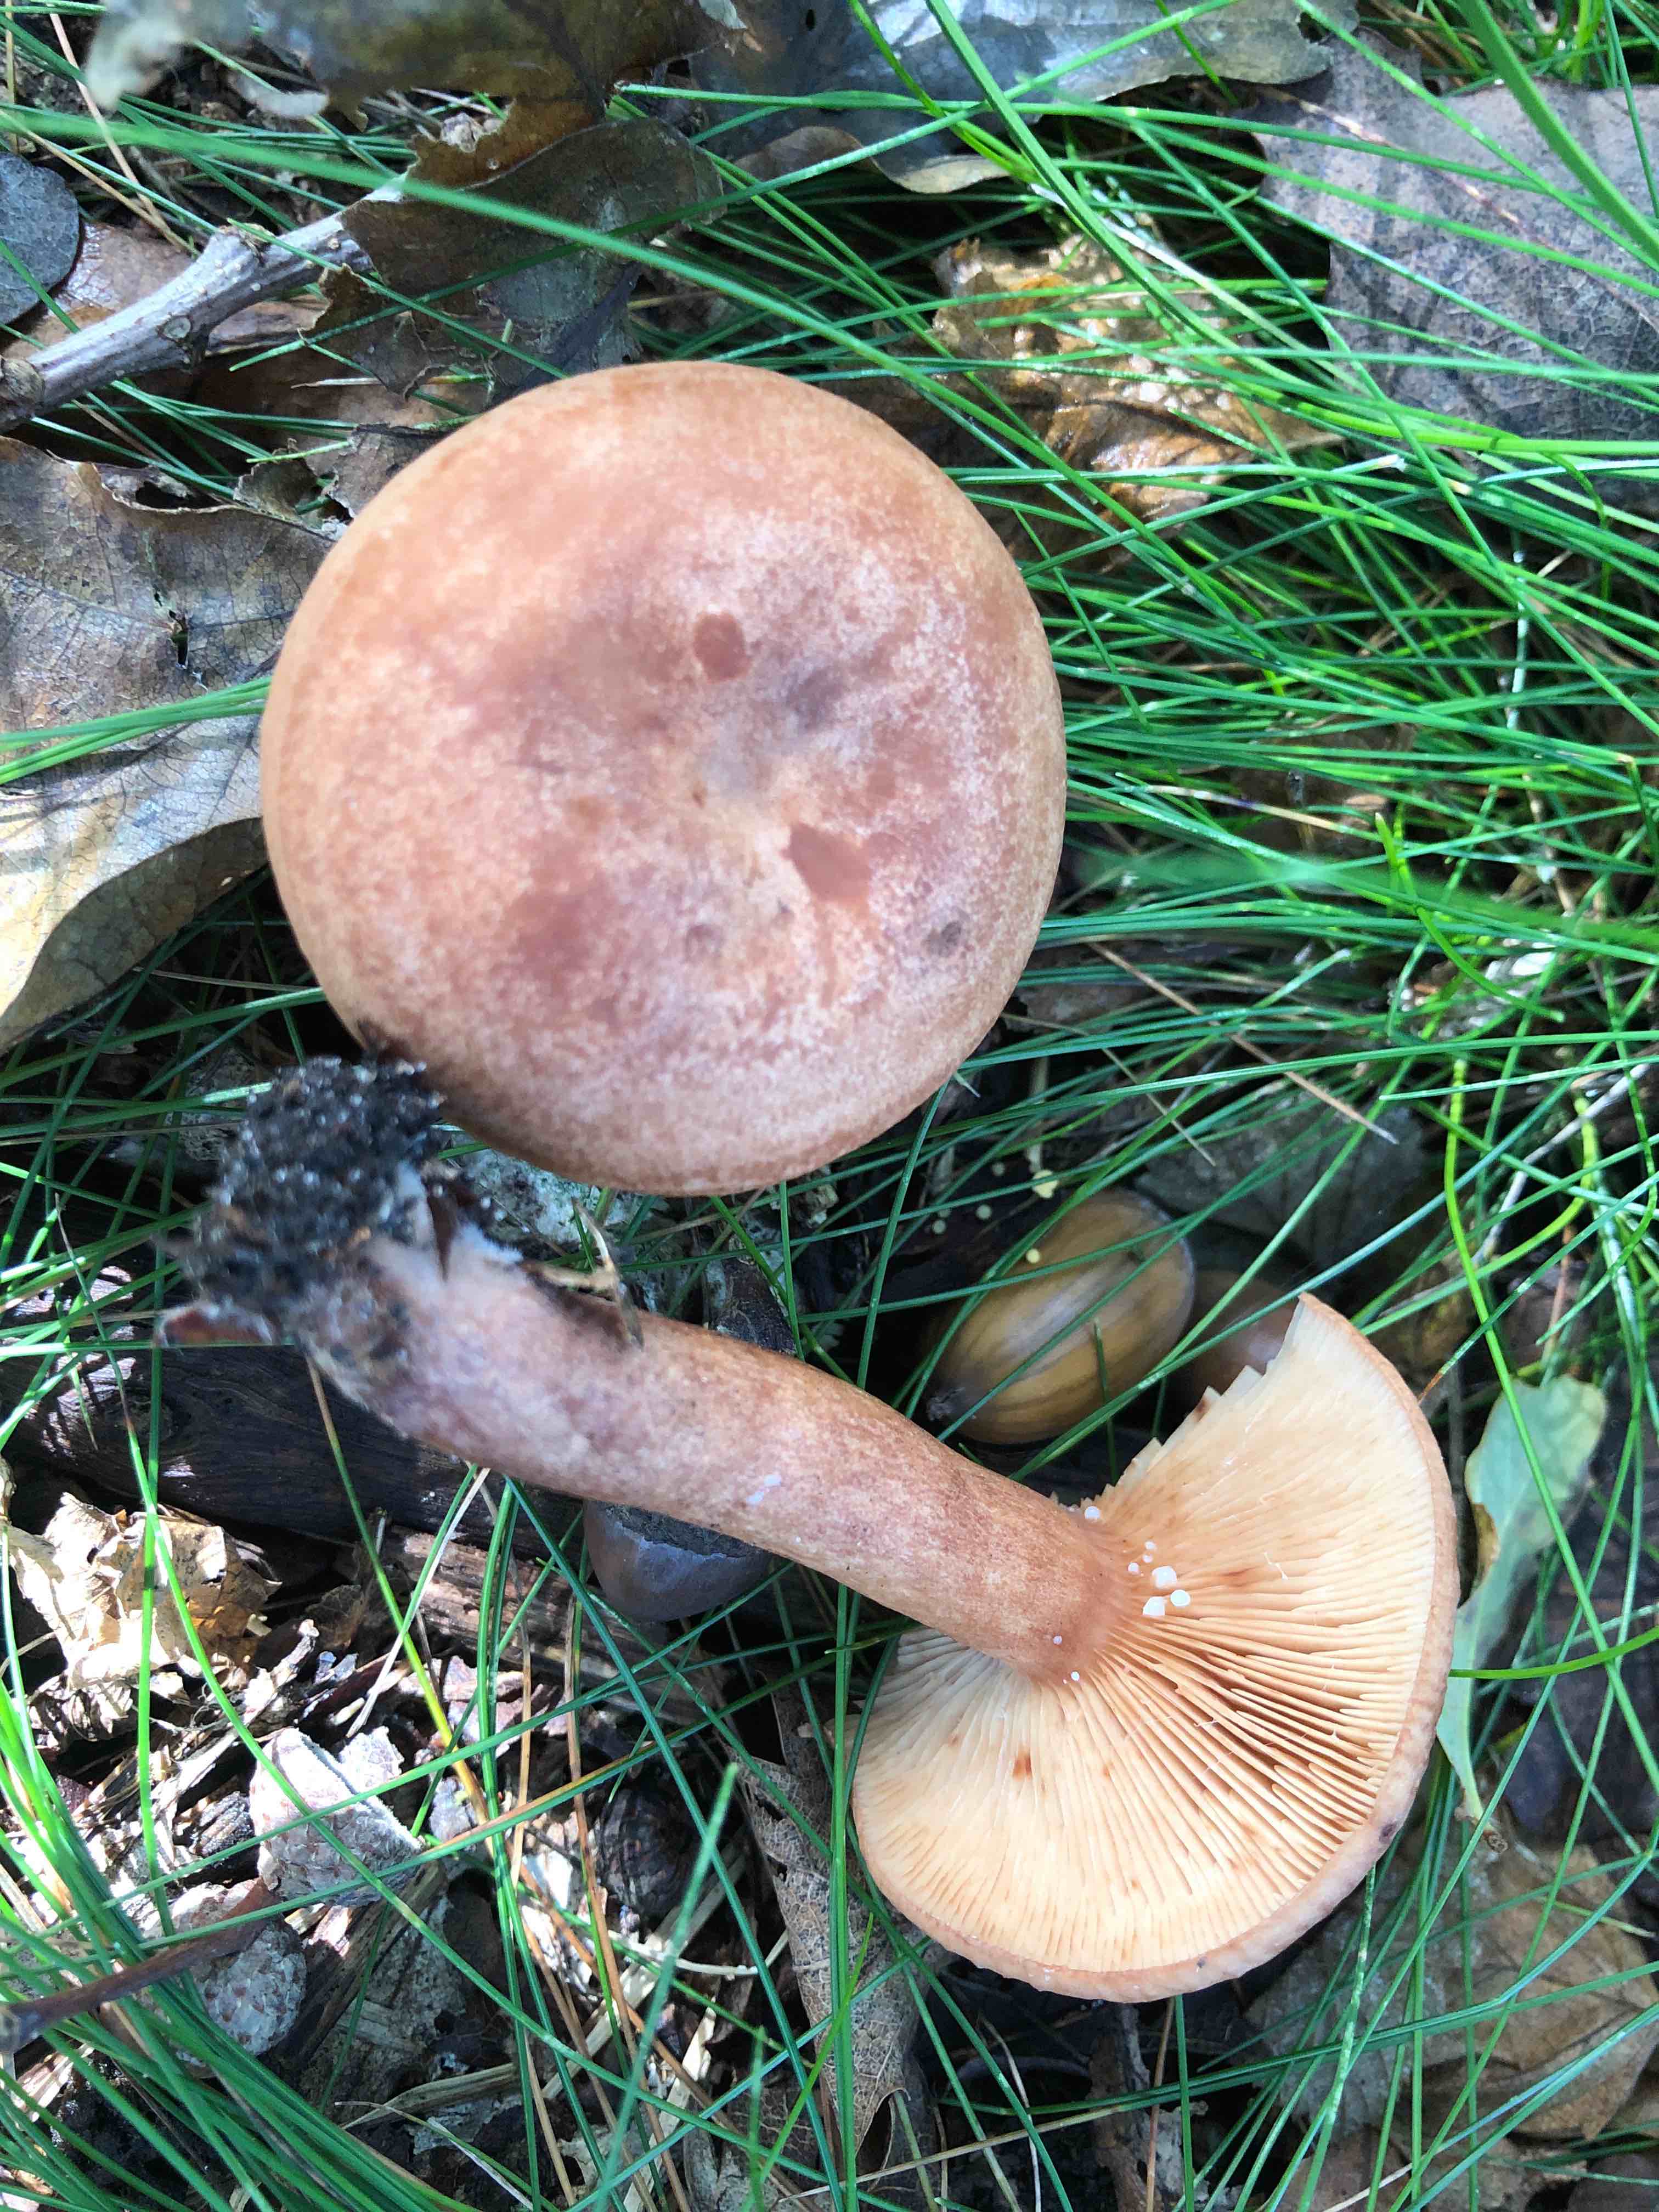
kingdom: Fungi
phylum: Basidiomycota
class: Agaricomycetes
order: Russulales
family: Russulaceae
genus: Lactarius
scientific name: Lactarius quietus
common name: ege-mælkehat
